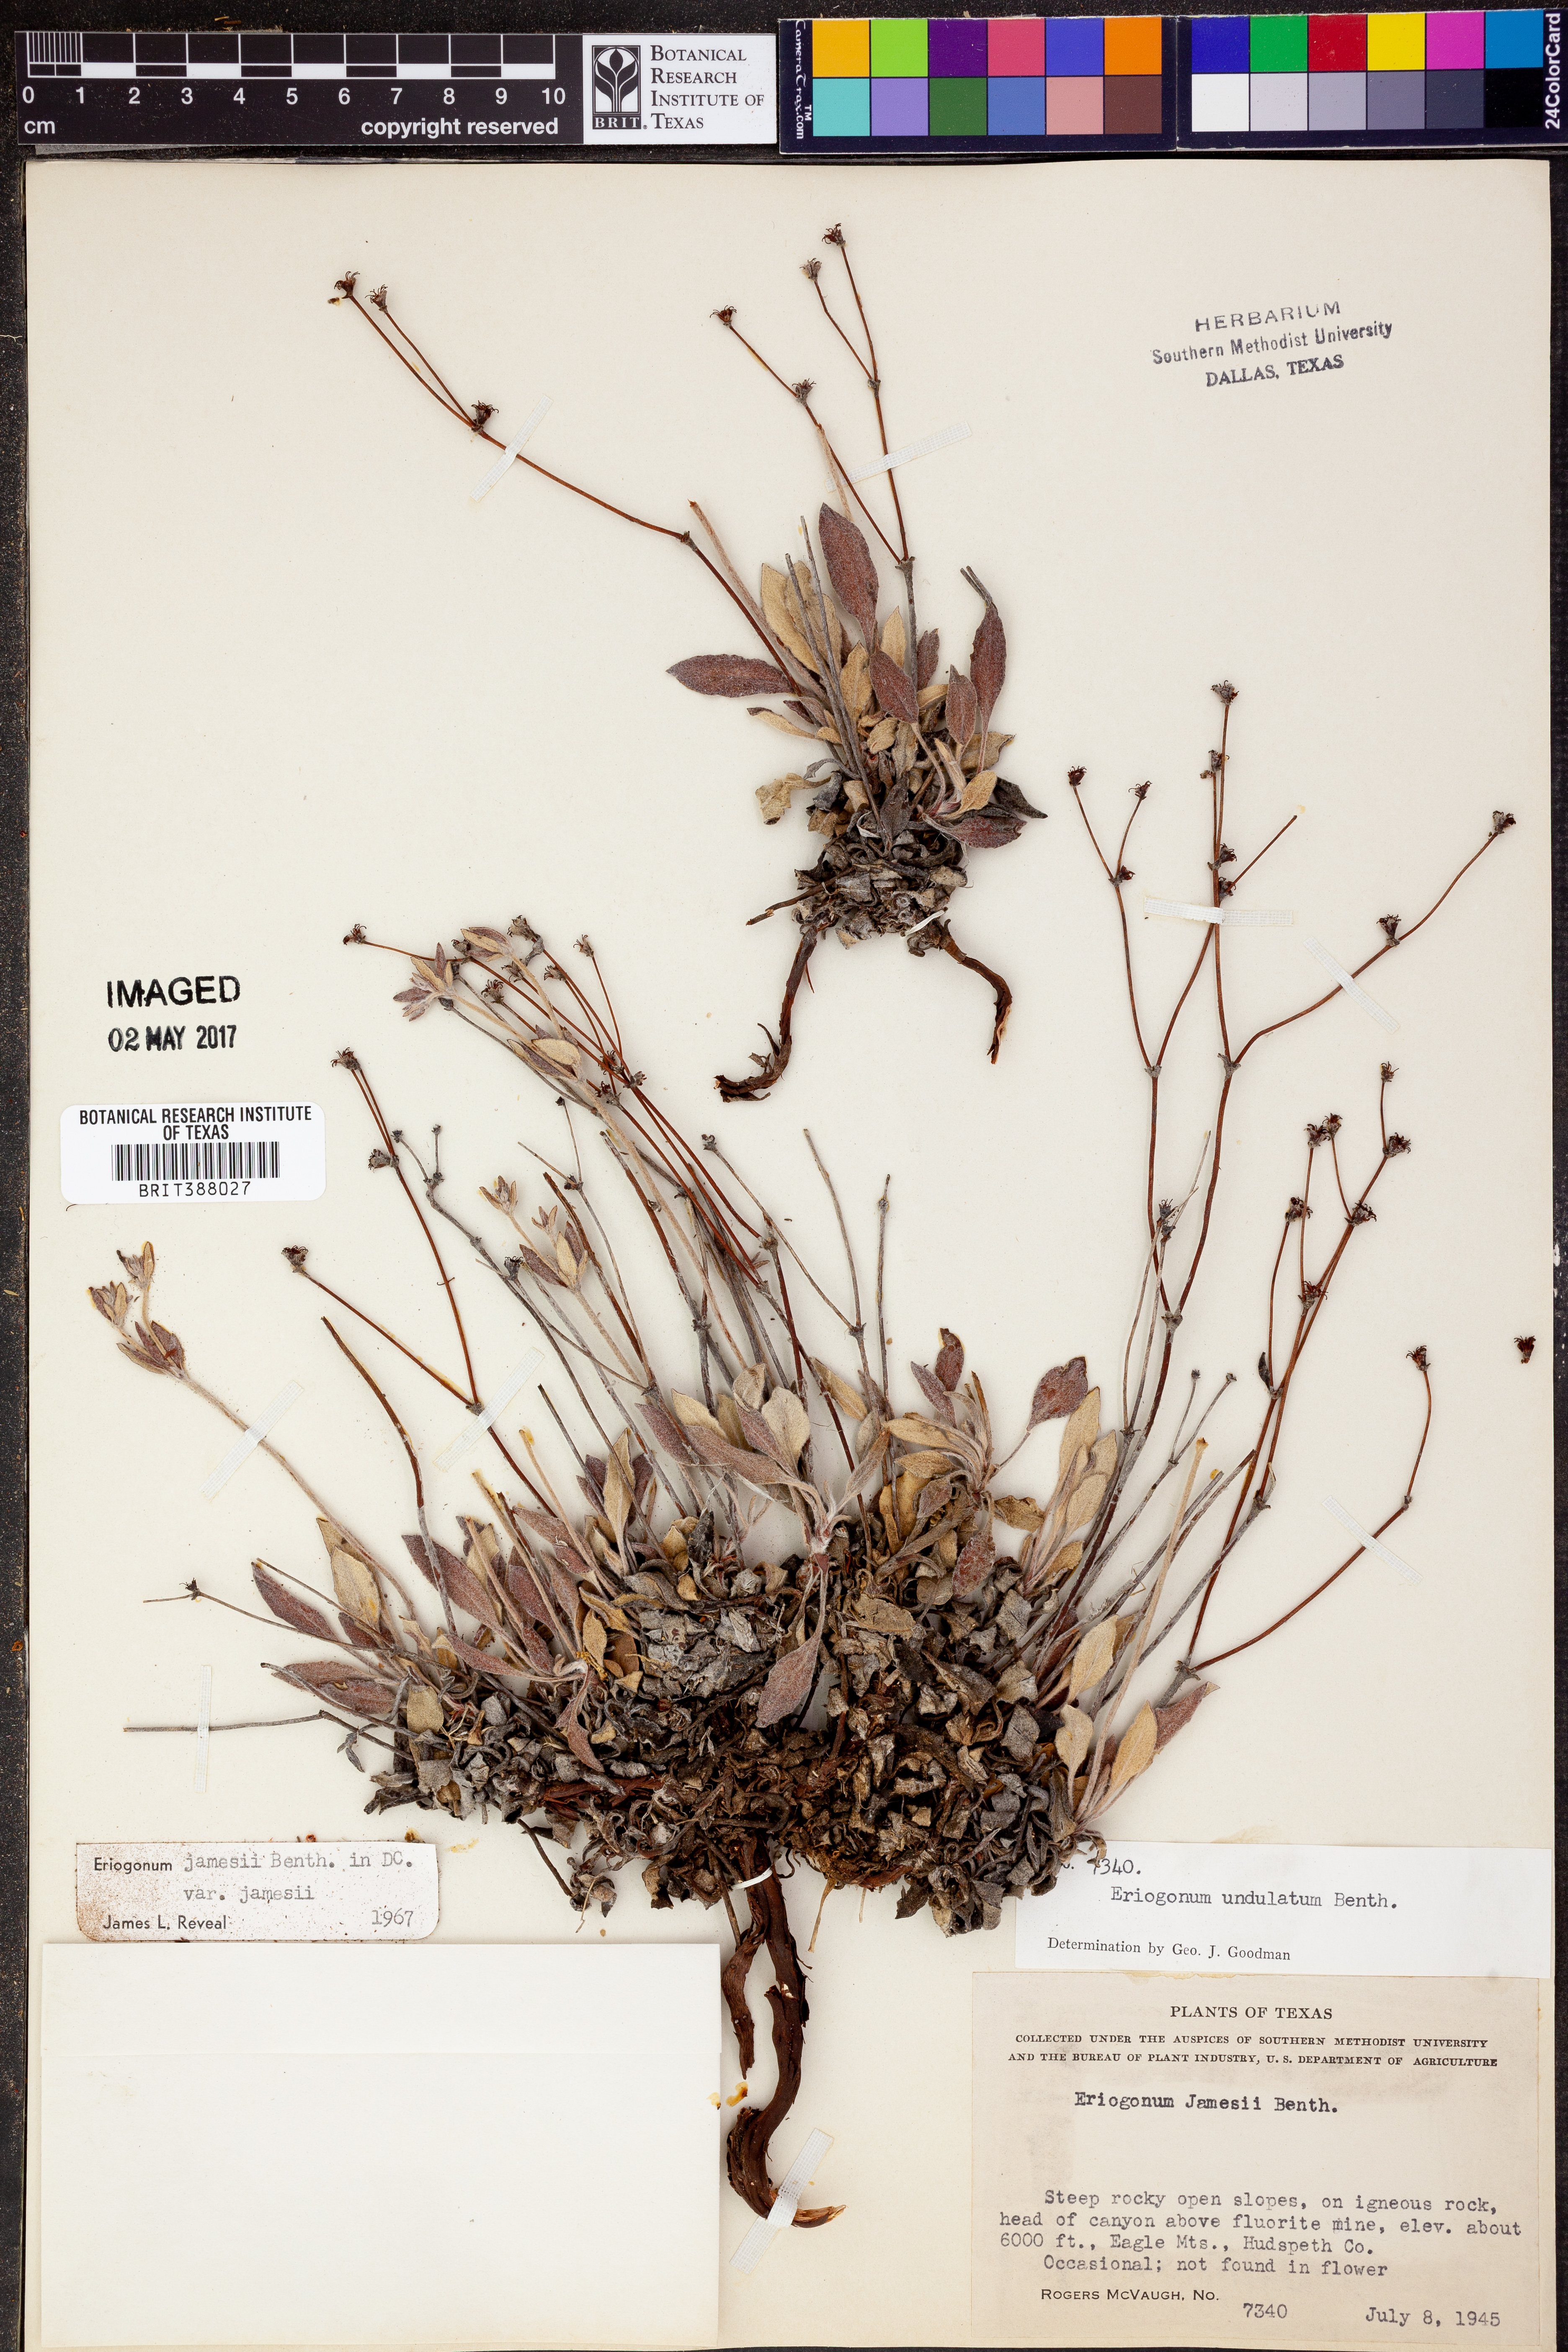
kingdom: Plantae
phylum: Tracheophyta
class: Magnoliopsida
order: Caryophyllales
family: Polygonaceae
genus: Eriogonum
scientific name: Eriogonum jamesii
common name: Antelope-sage
